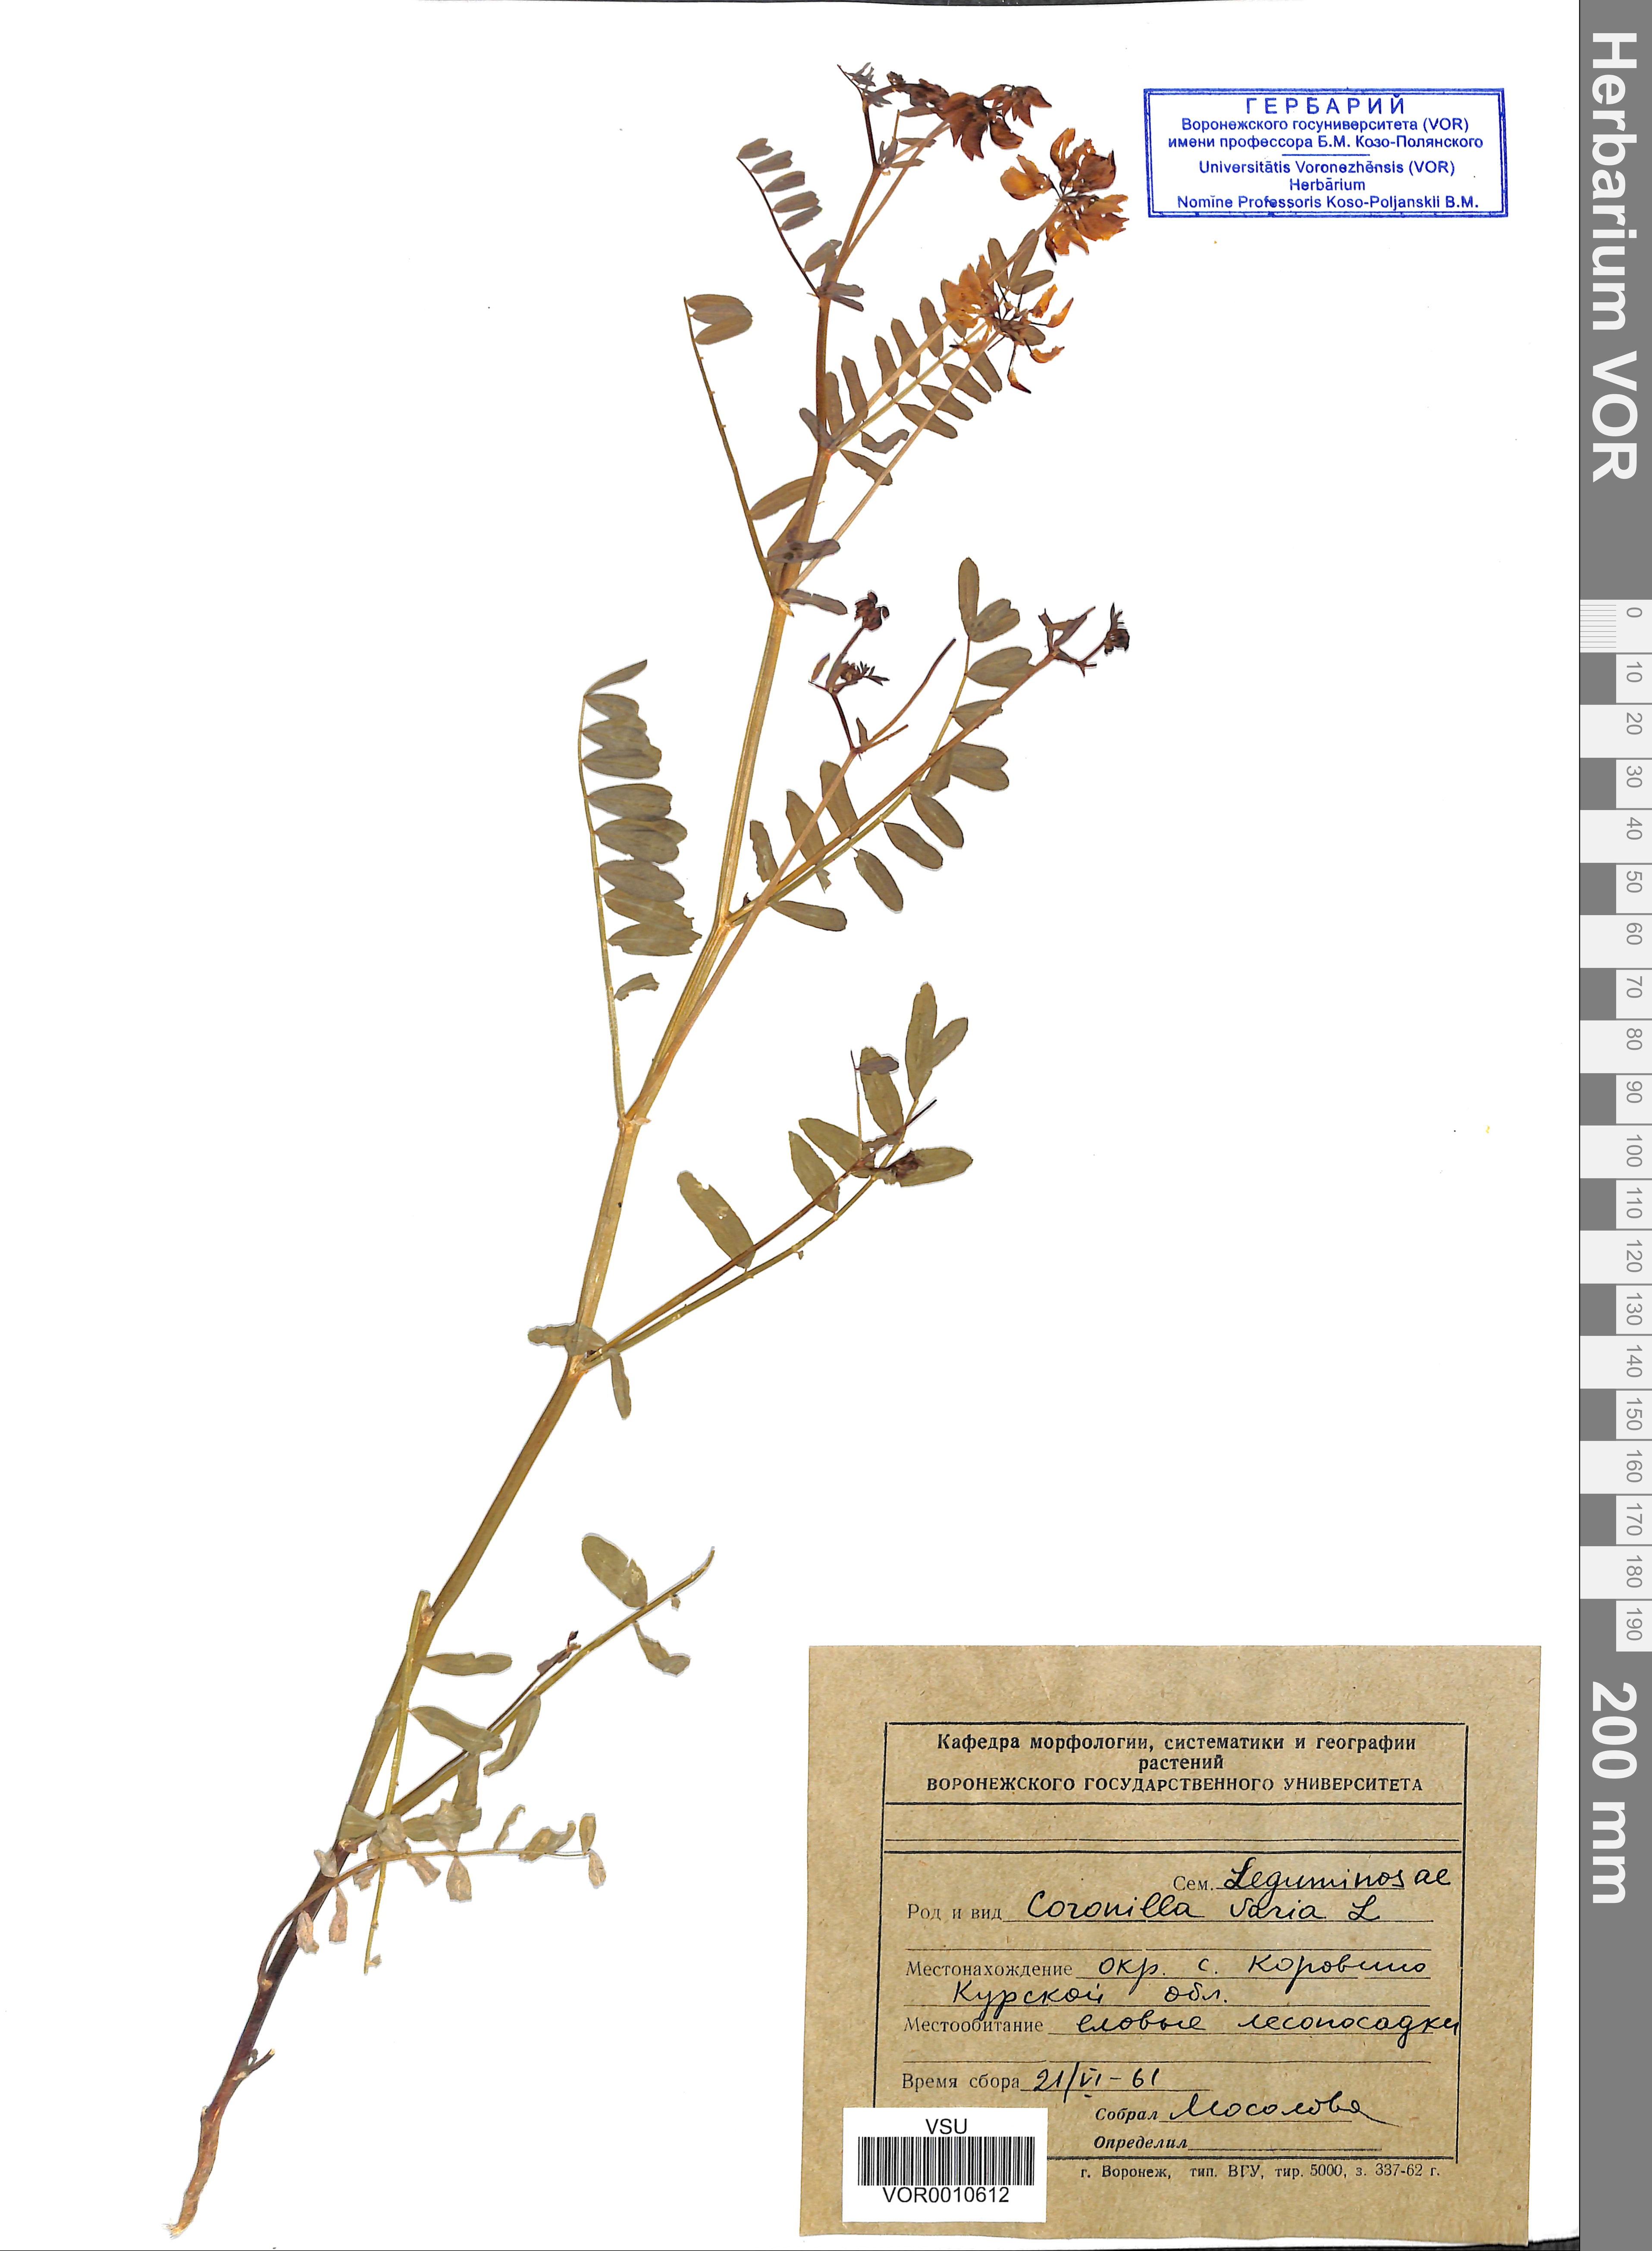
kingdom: Plantae
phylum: Tracheophyta
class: Magnoliopsida
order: Fabales
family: Fabaceae
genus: Coronilla
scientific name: Coronilla varia
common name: Crownvetch
